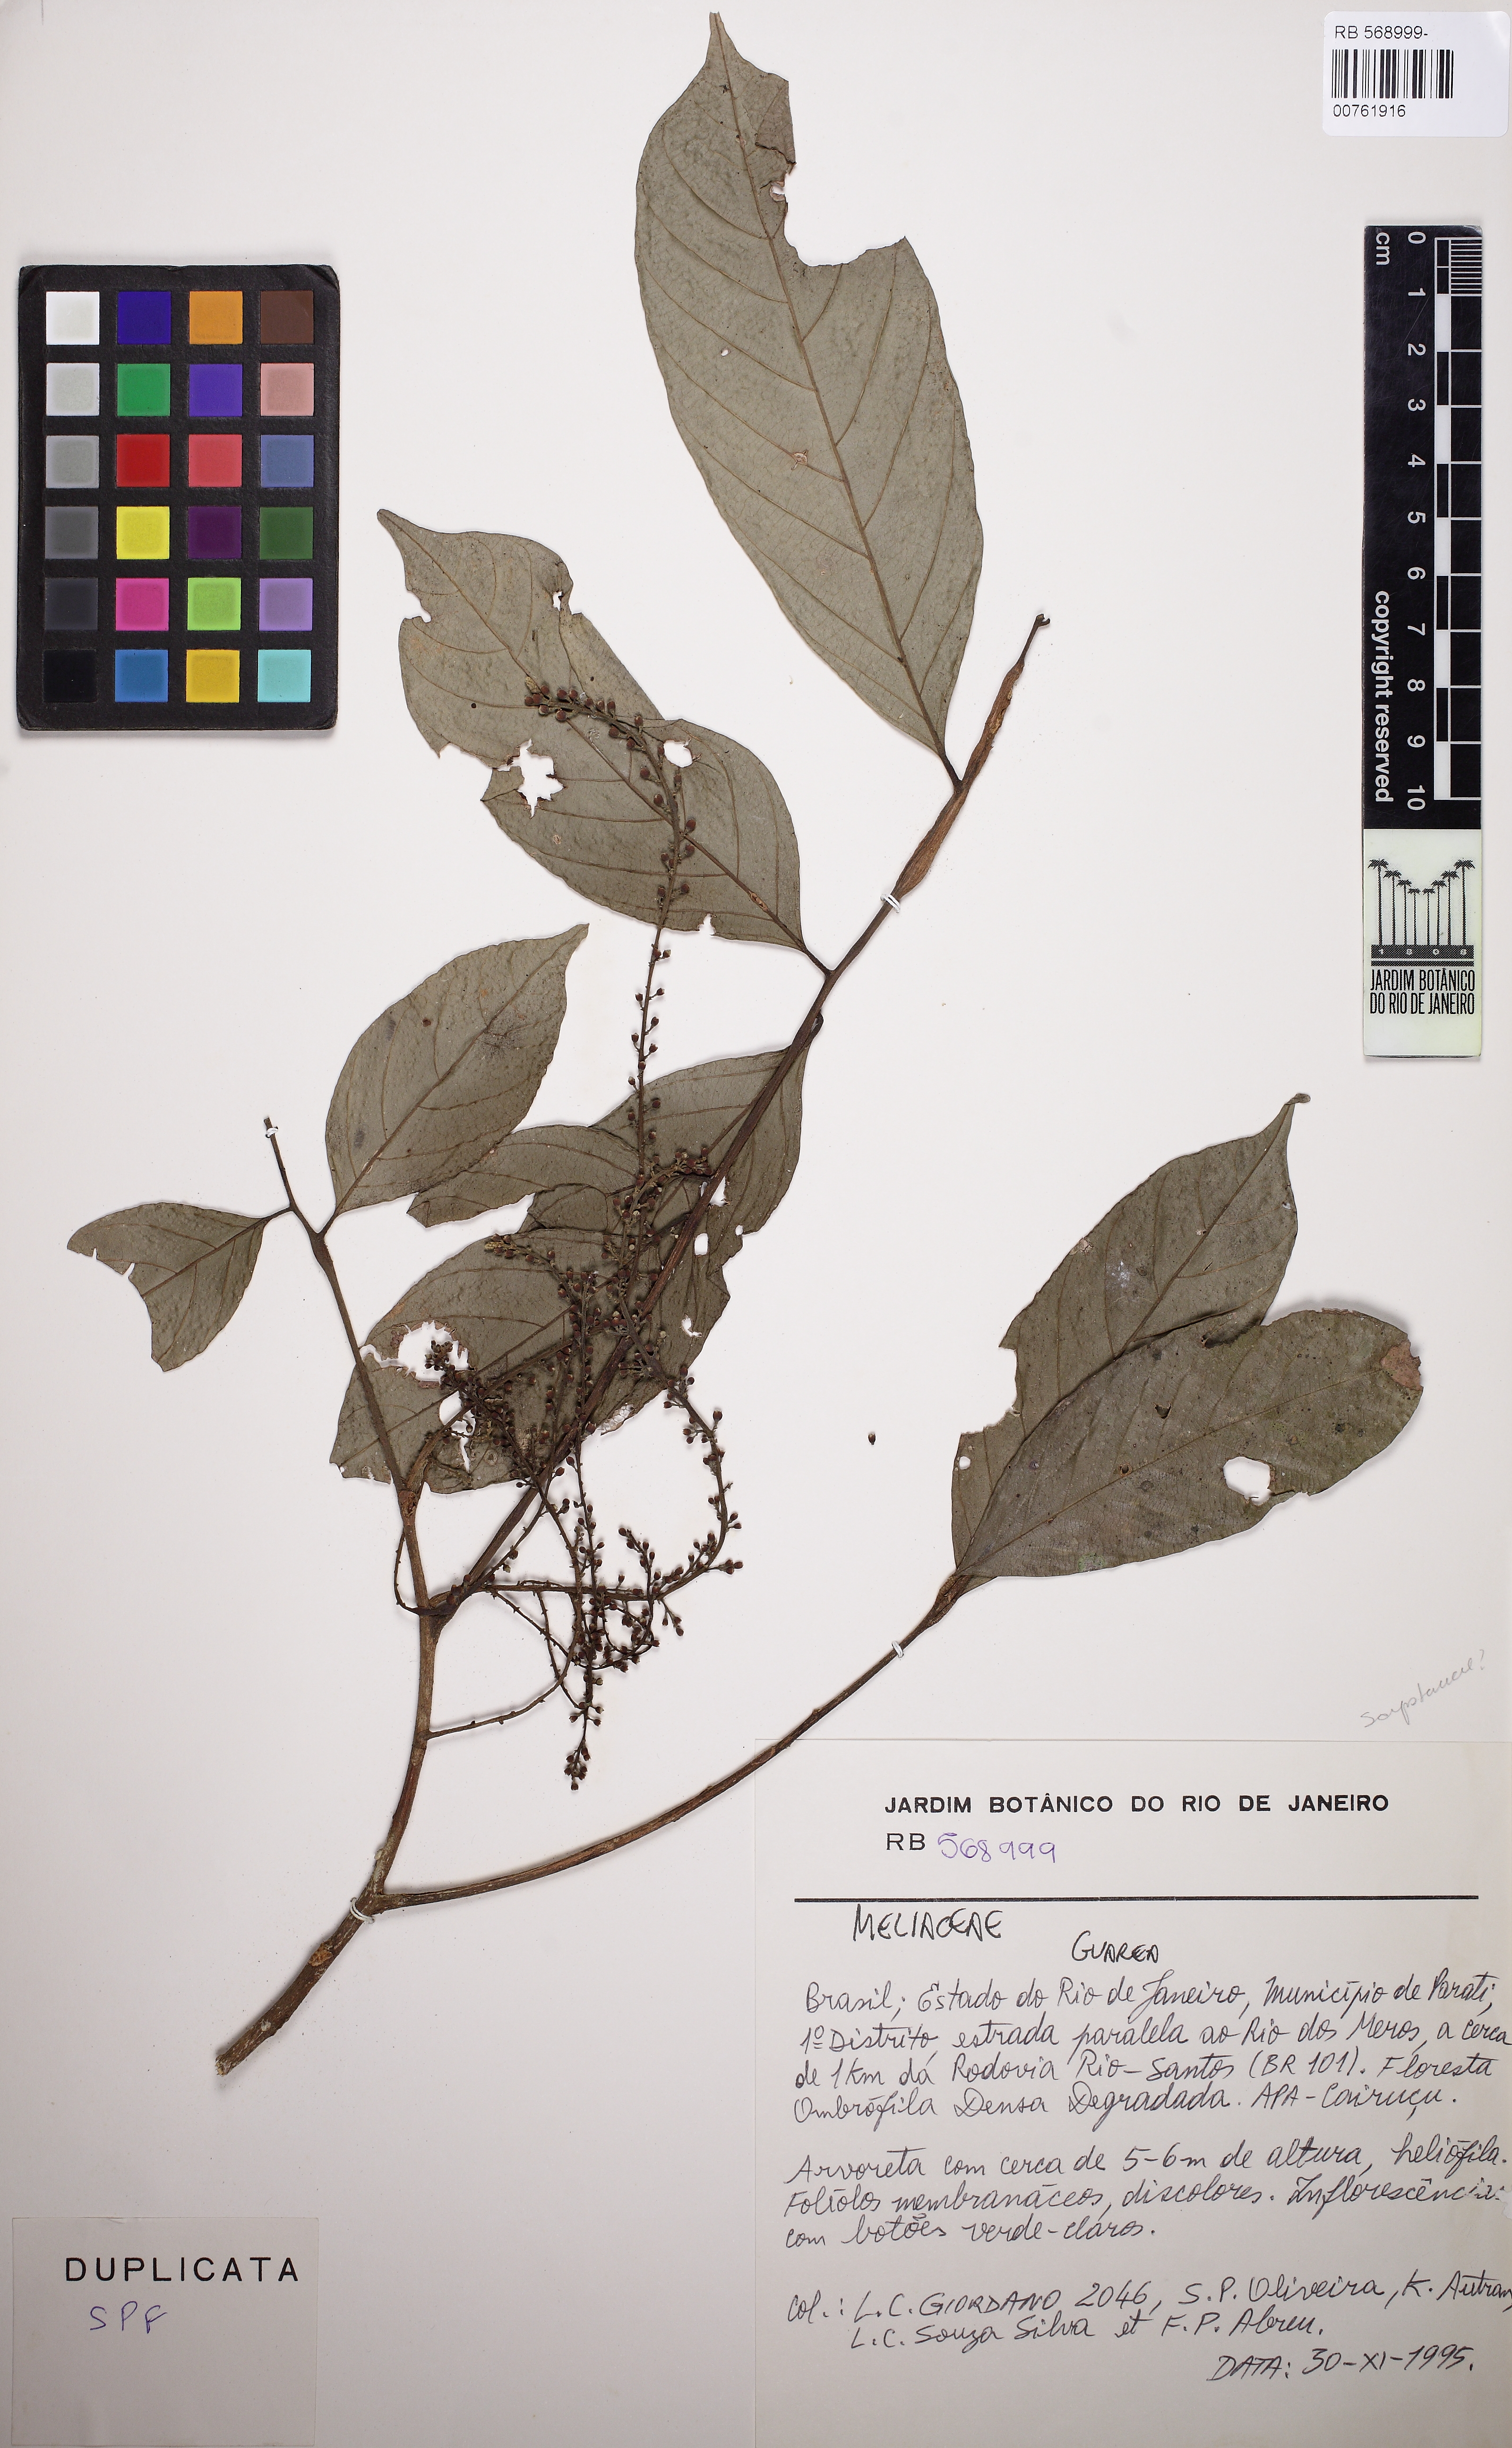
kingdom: Plantae
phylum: Tracheophyta
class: Magnoliopsida
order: Sapindales
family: Meliaceae
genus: Guarea
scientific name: Guarea
